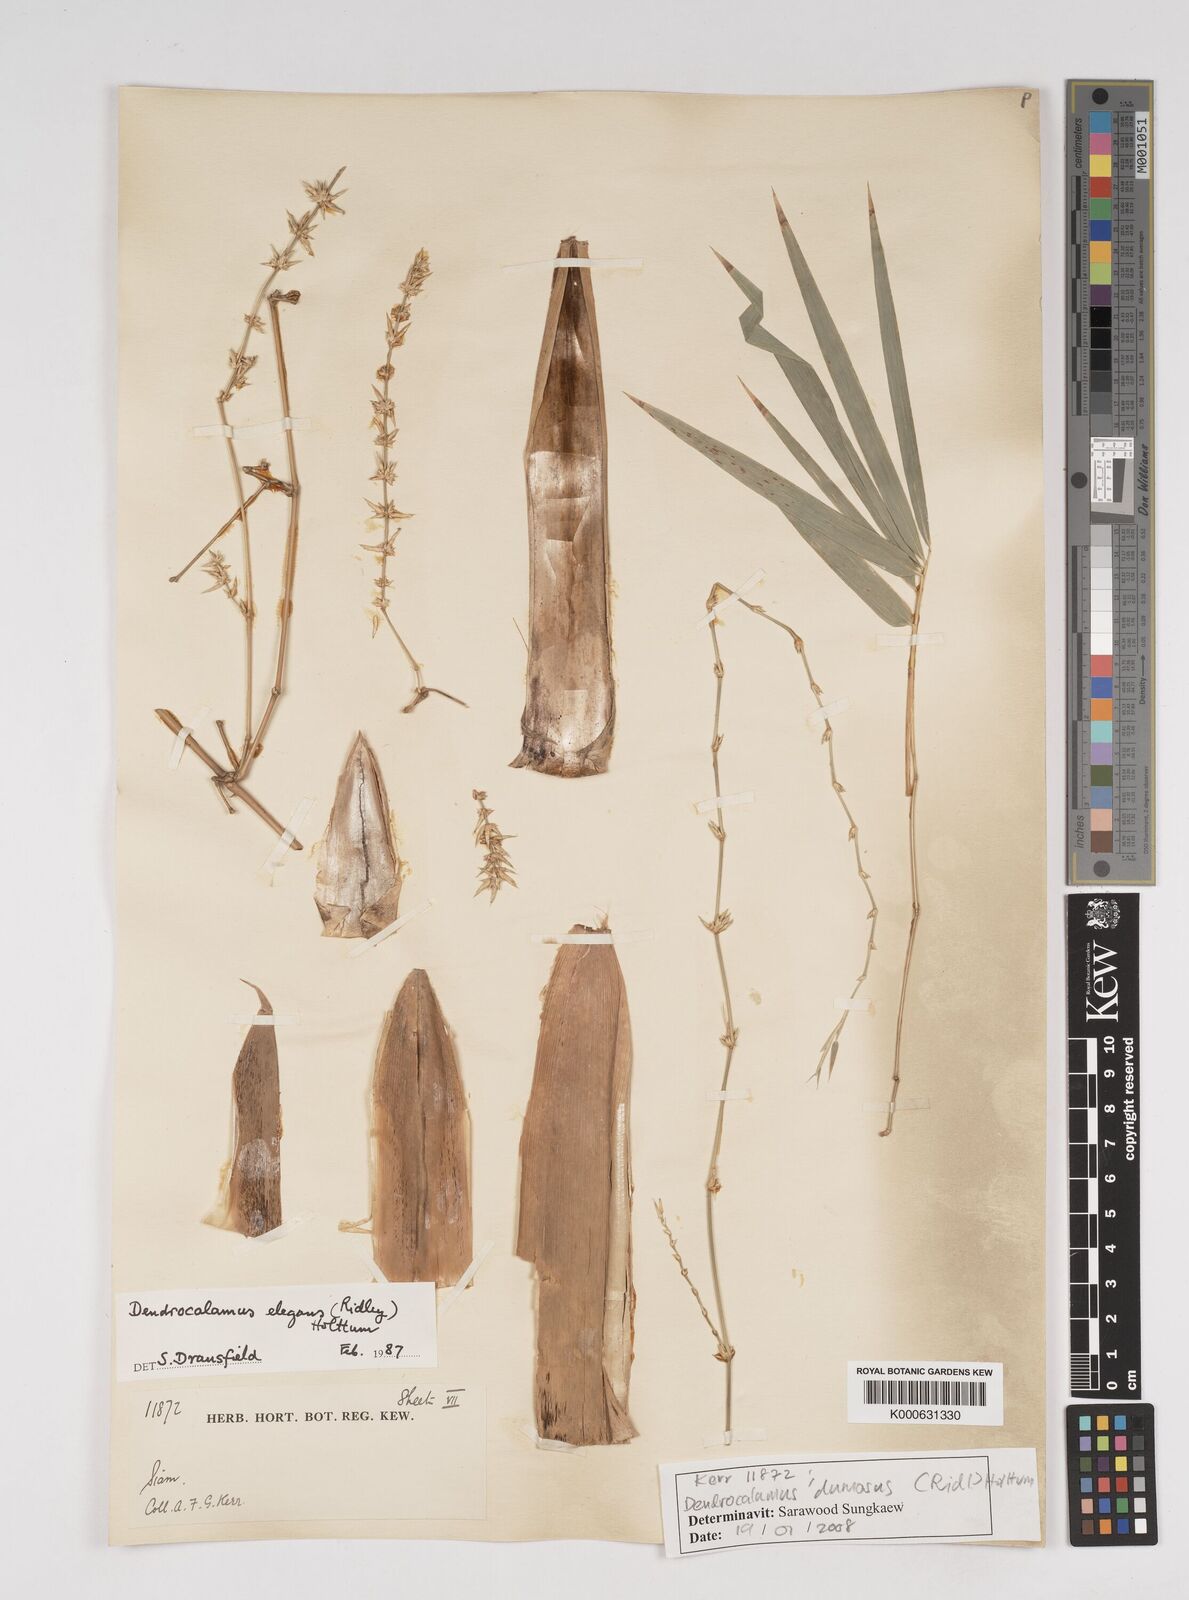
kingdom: Plantae
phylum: Tracheophyta
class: Liliopsida
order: Poales
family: Poaceae
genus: Dendrocalamus
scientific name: Dendrocalamus dumosus
